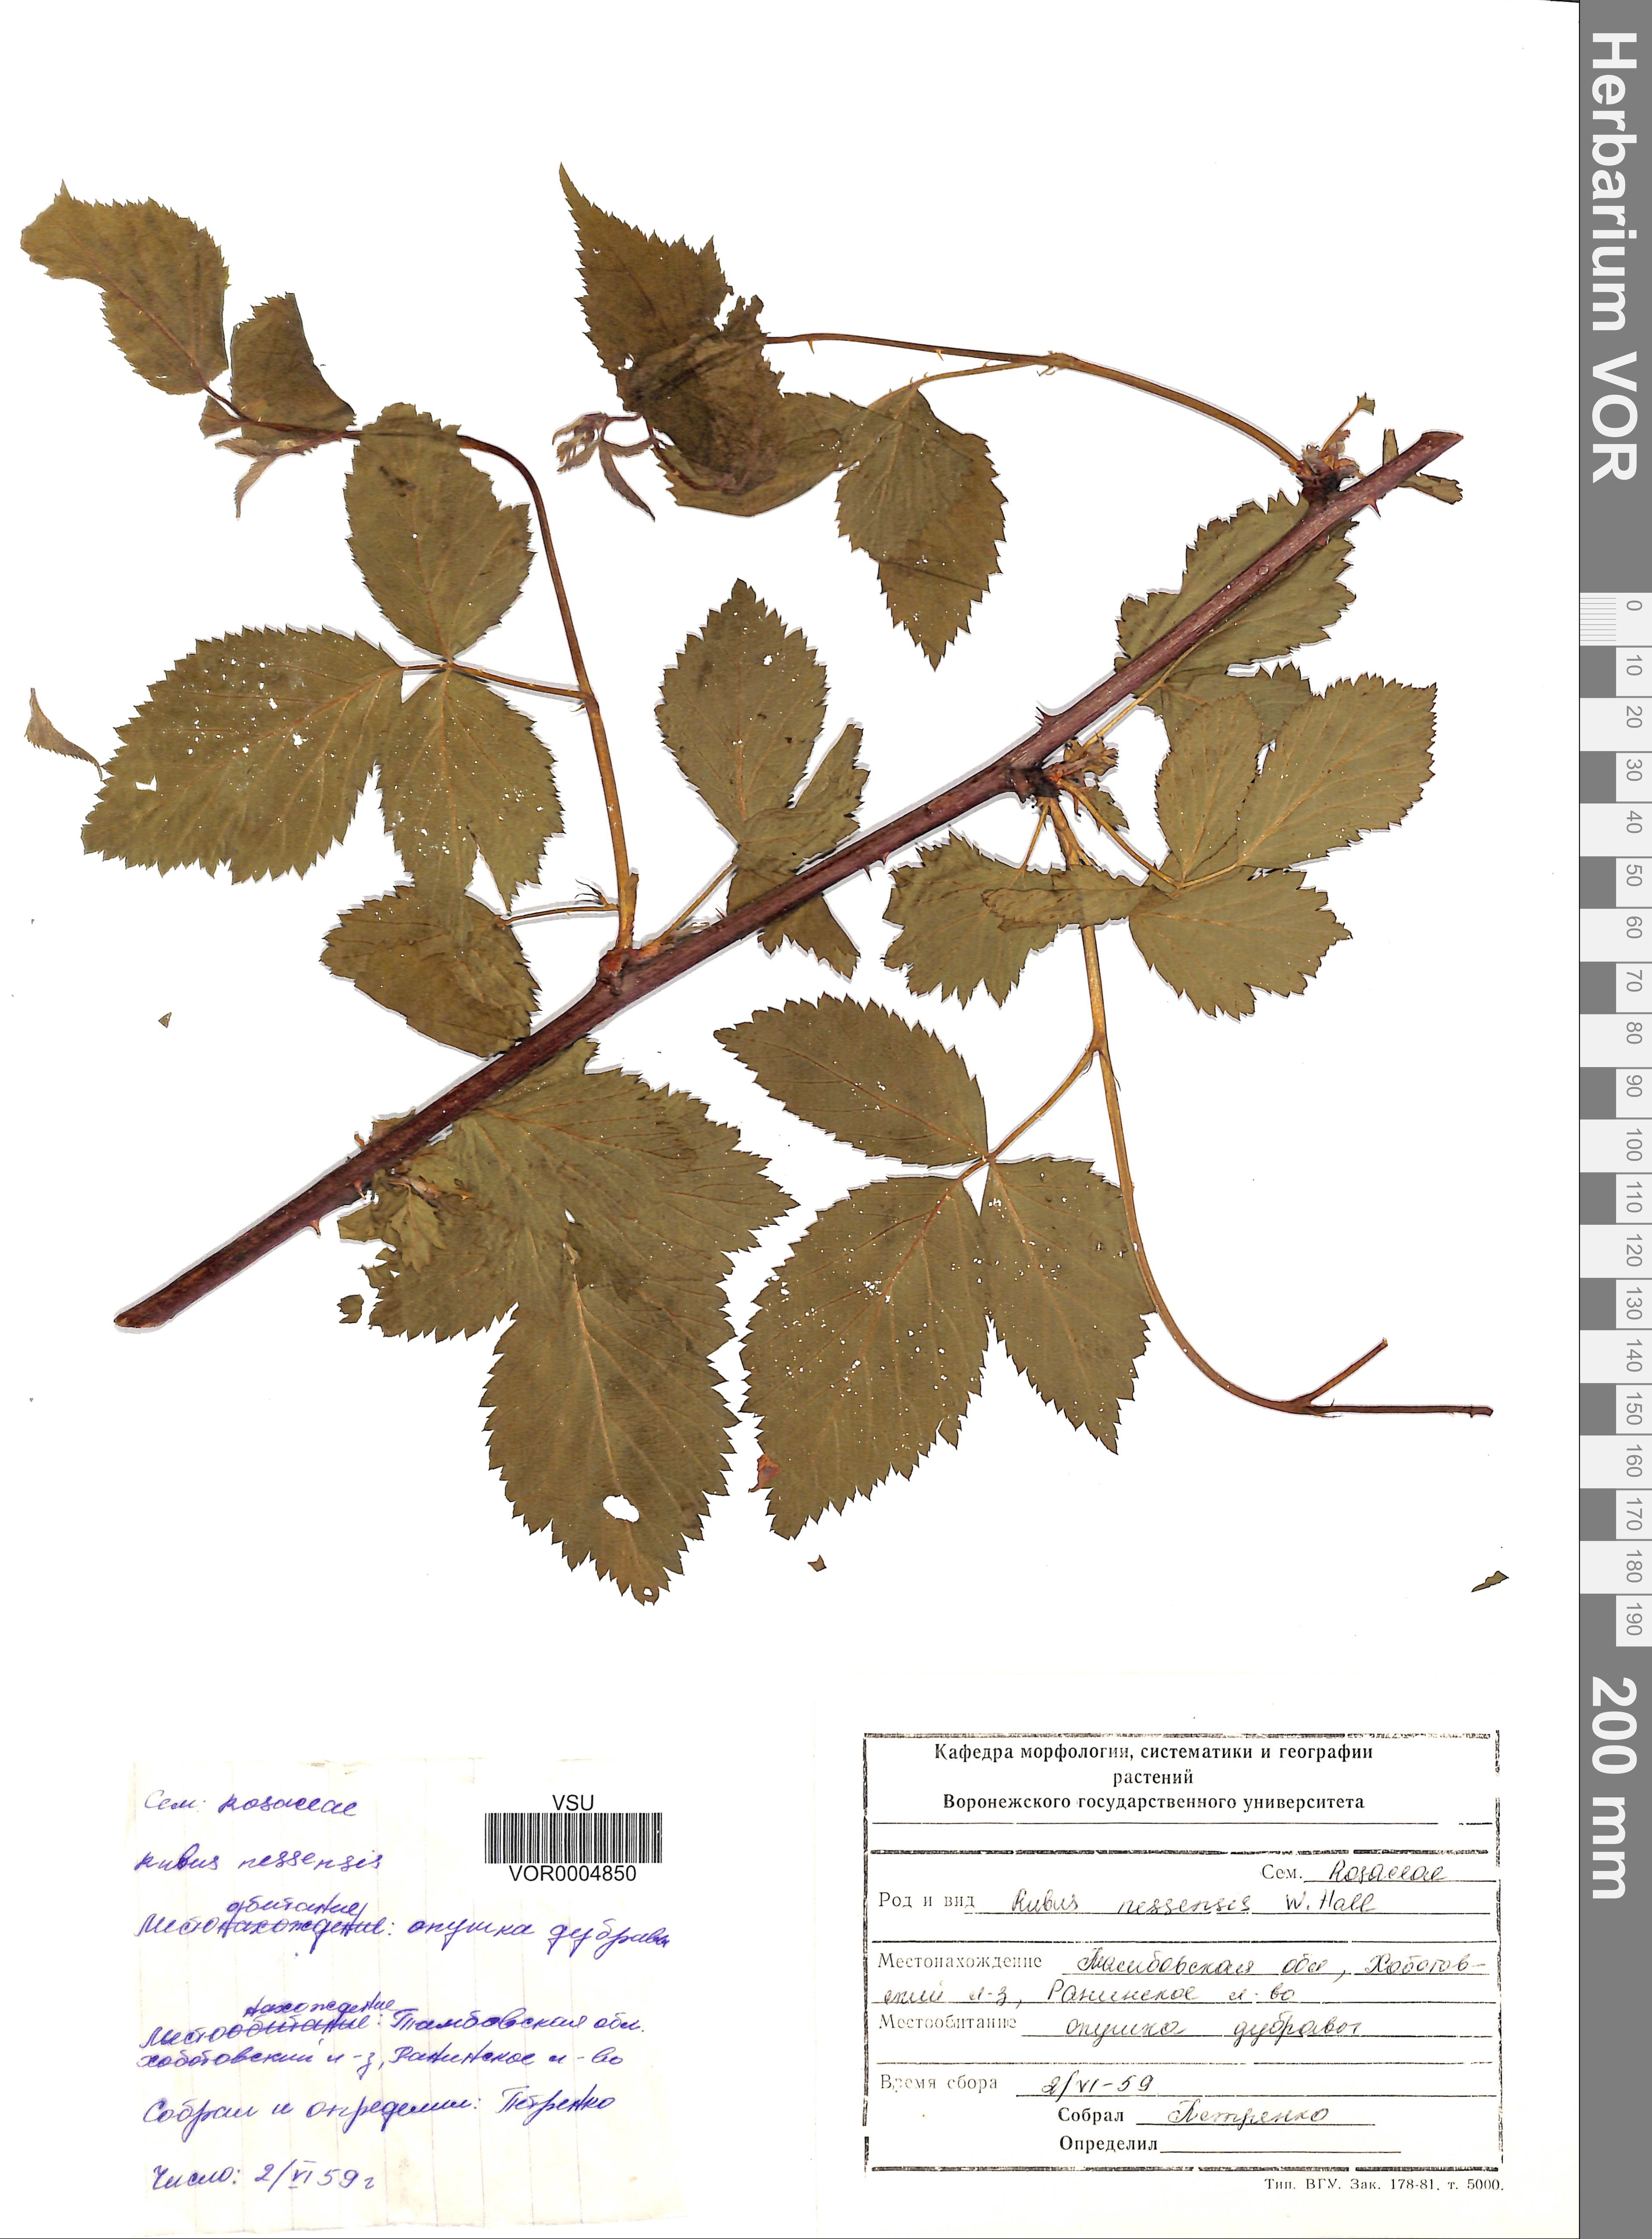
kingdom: Plantae
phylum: Tracheophyta
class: Magnoliopsida
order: Rosales
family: Rosaceae
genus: Rubus
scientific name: Rubus polonicus
